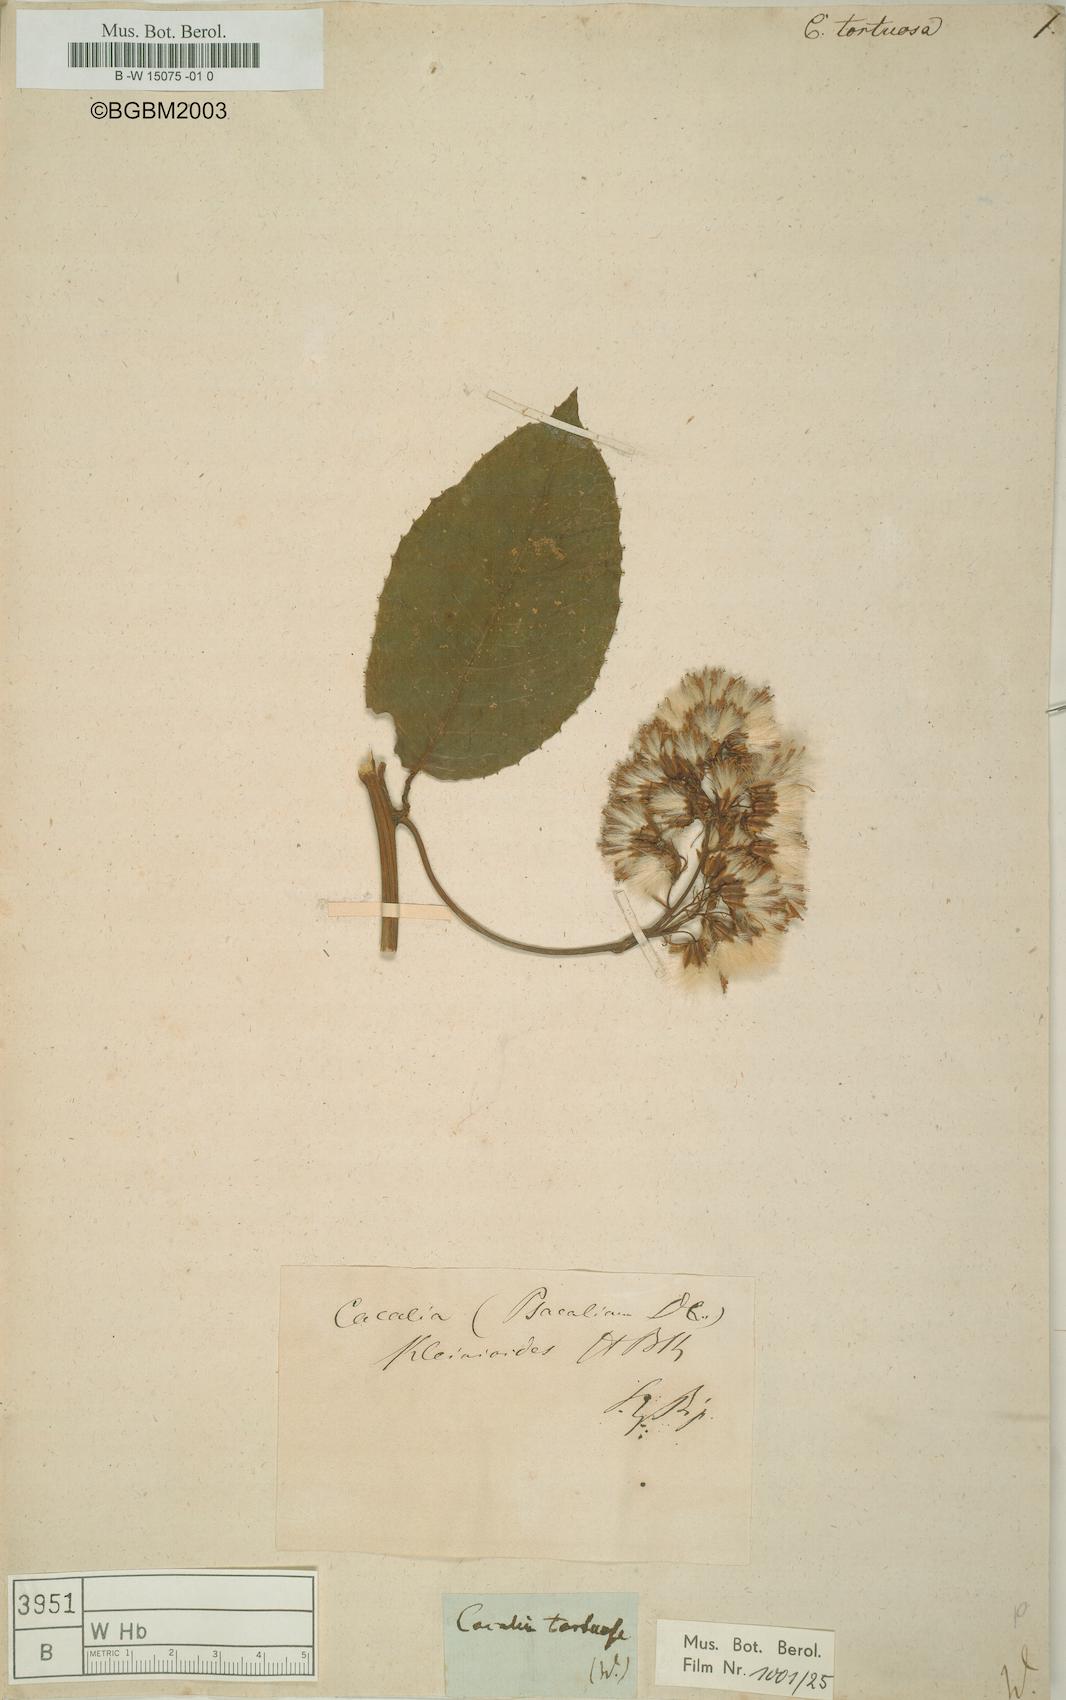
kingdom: Plantae
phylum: Tracheophyta
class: Magnoliopsida
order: Asterales
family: Asteraceae
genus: Cacalia
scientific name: Cacalia
